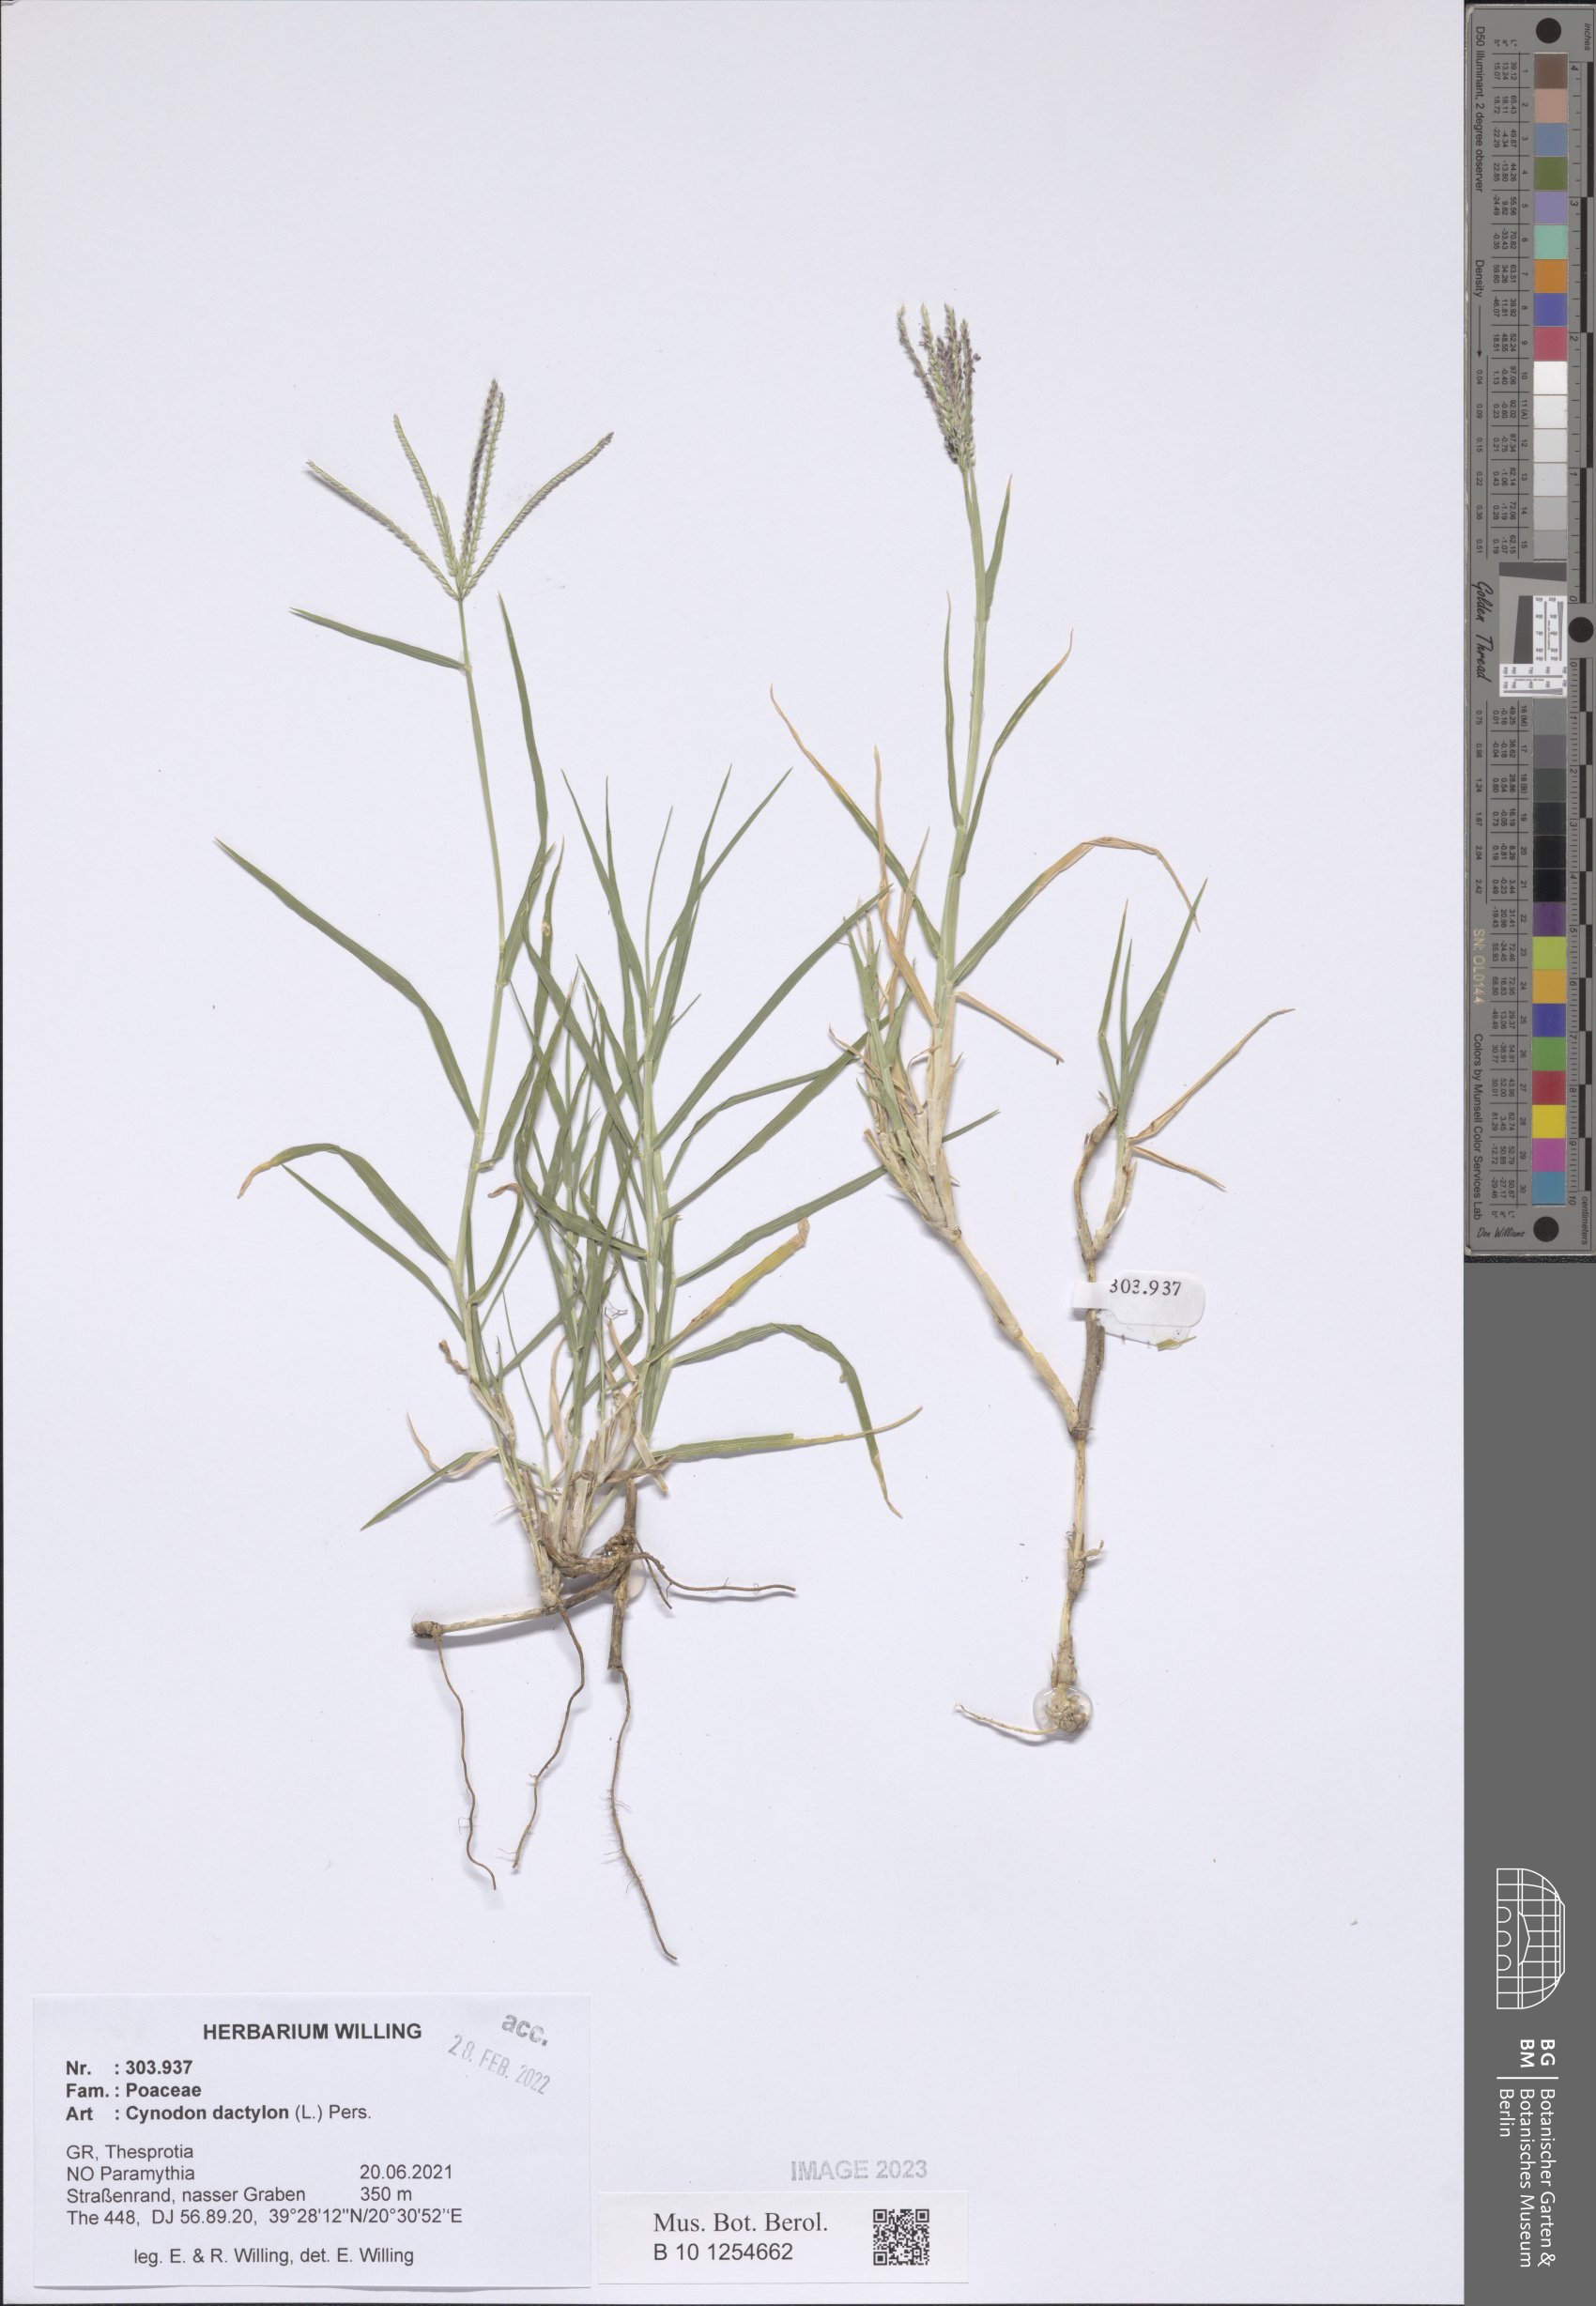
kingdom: Plantae
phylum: Tracheophyta
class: Liliopsida
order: Poales
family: Poaceae
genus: Cynodon
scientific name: Cynodon dactylon
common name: Bermuda grass
